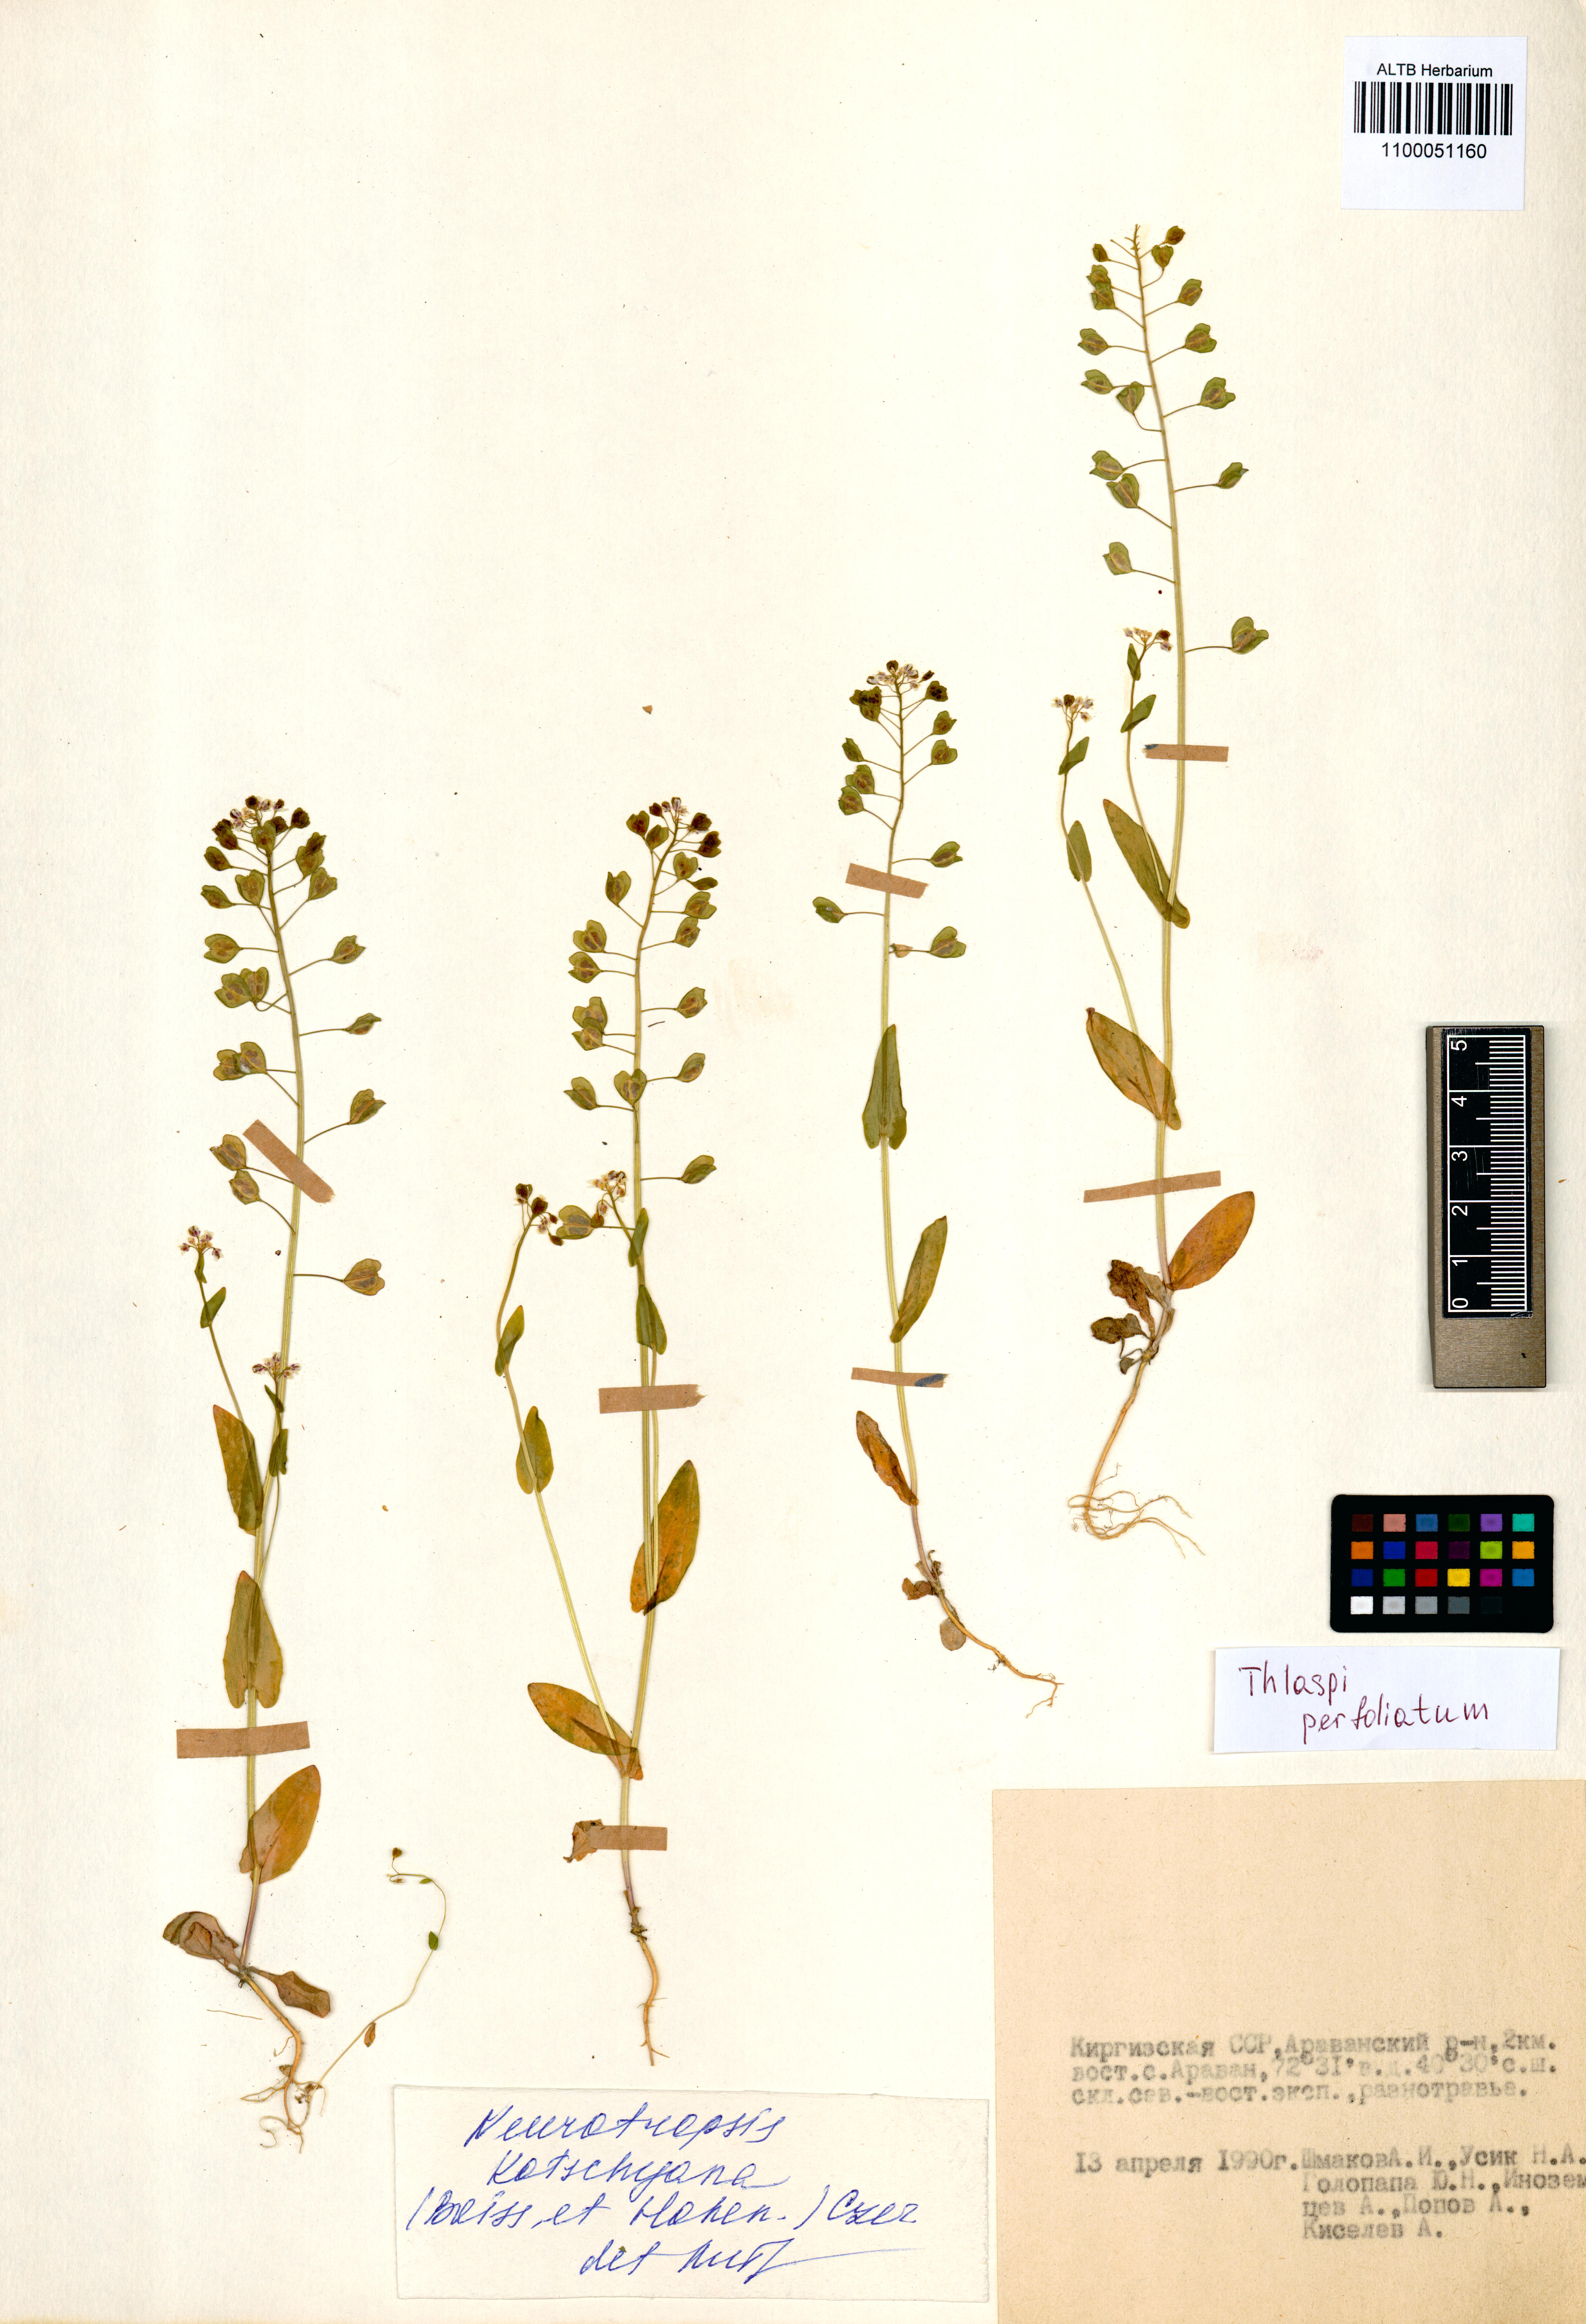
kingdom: Plantae
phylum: Tracheophyta
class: Magnoliopsida
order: Brassicales
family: Brassicaceae
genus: Noccaea
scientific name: Noccaea perfoliata
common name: Perfoliate pennycress
